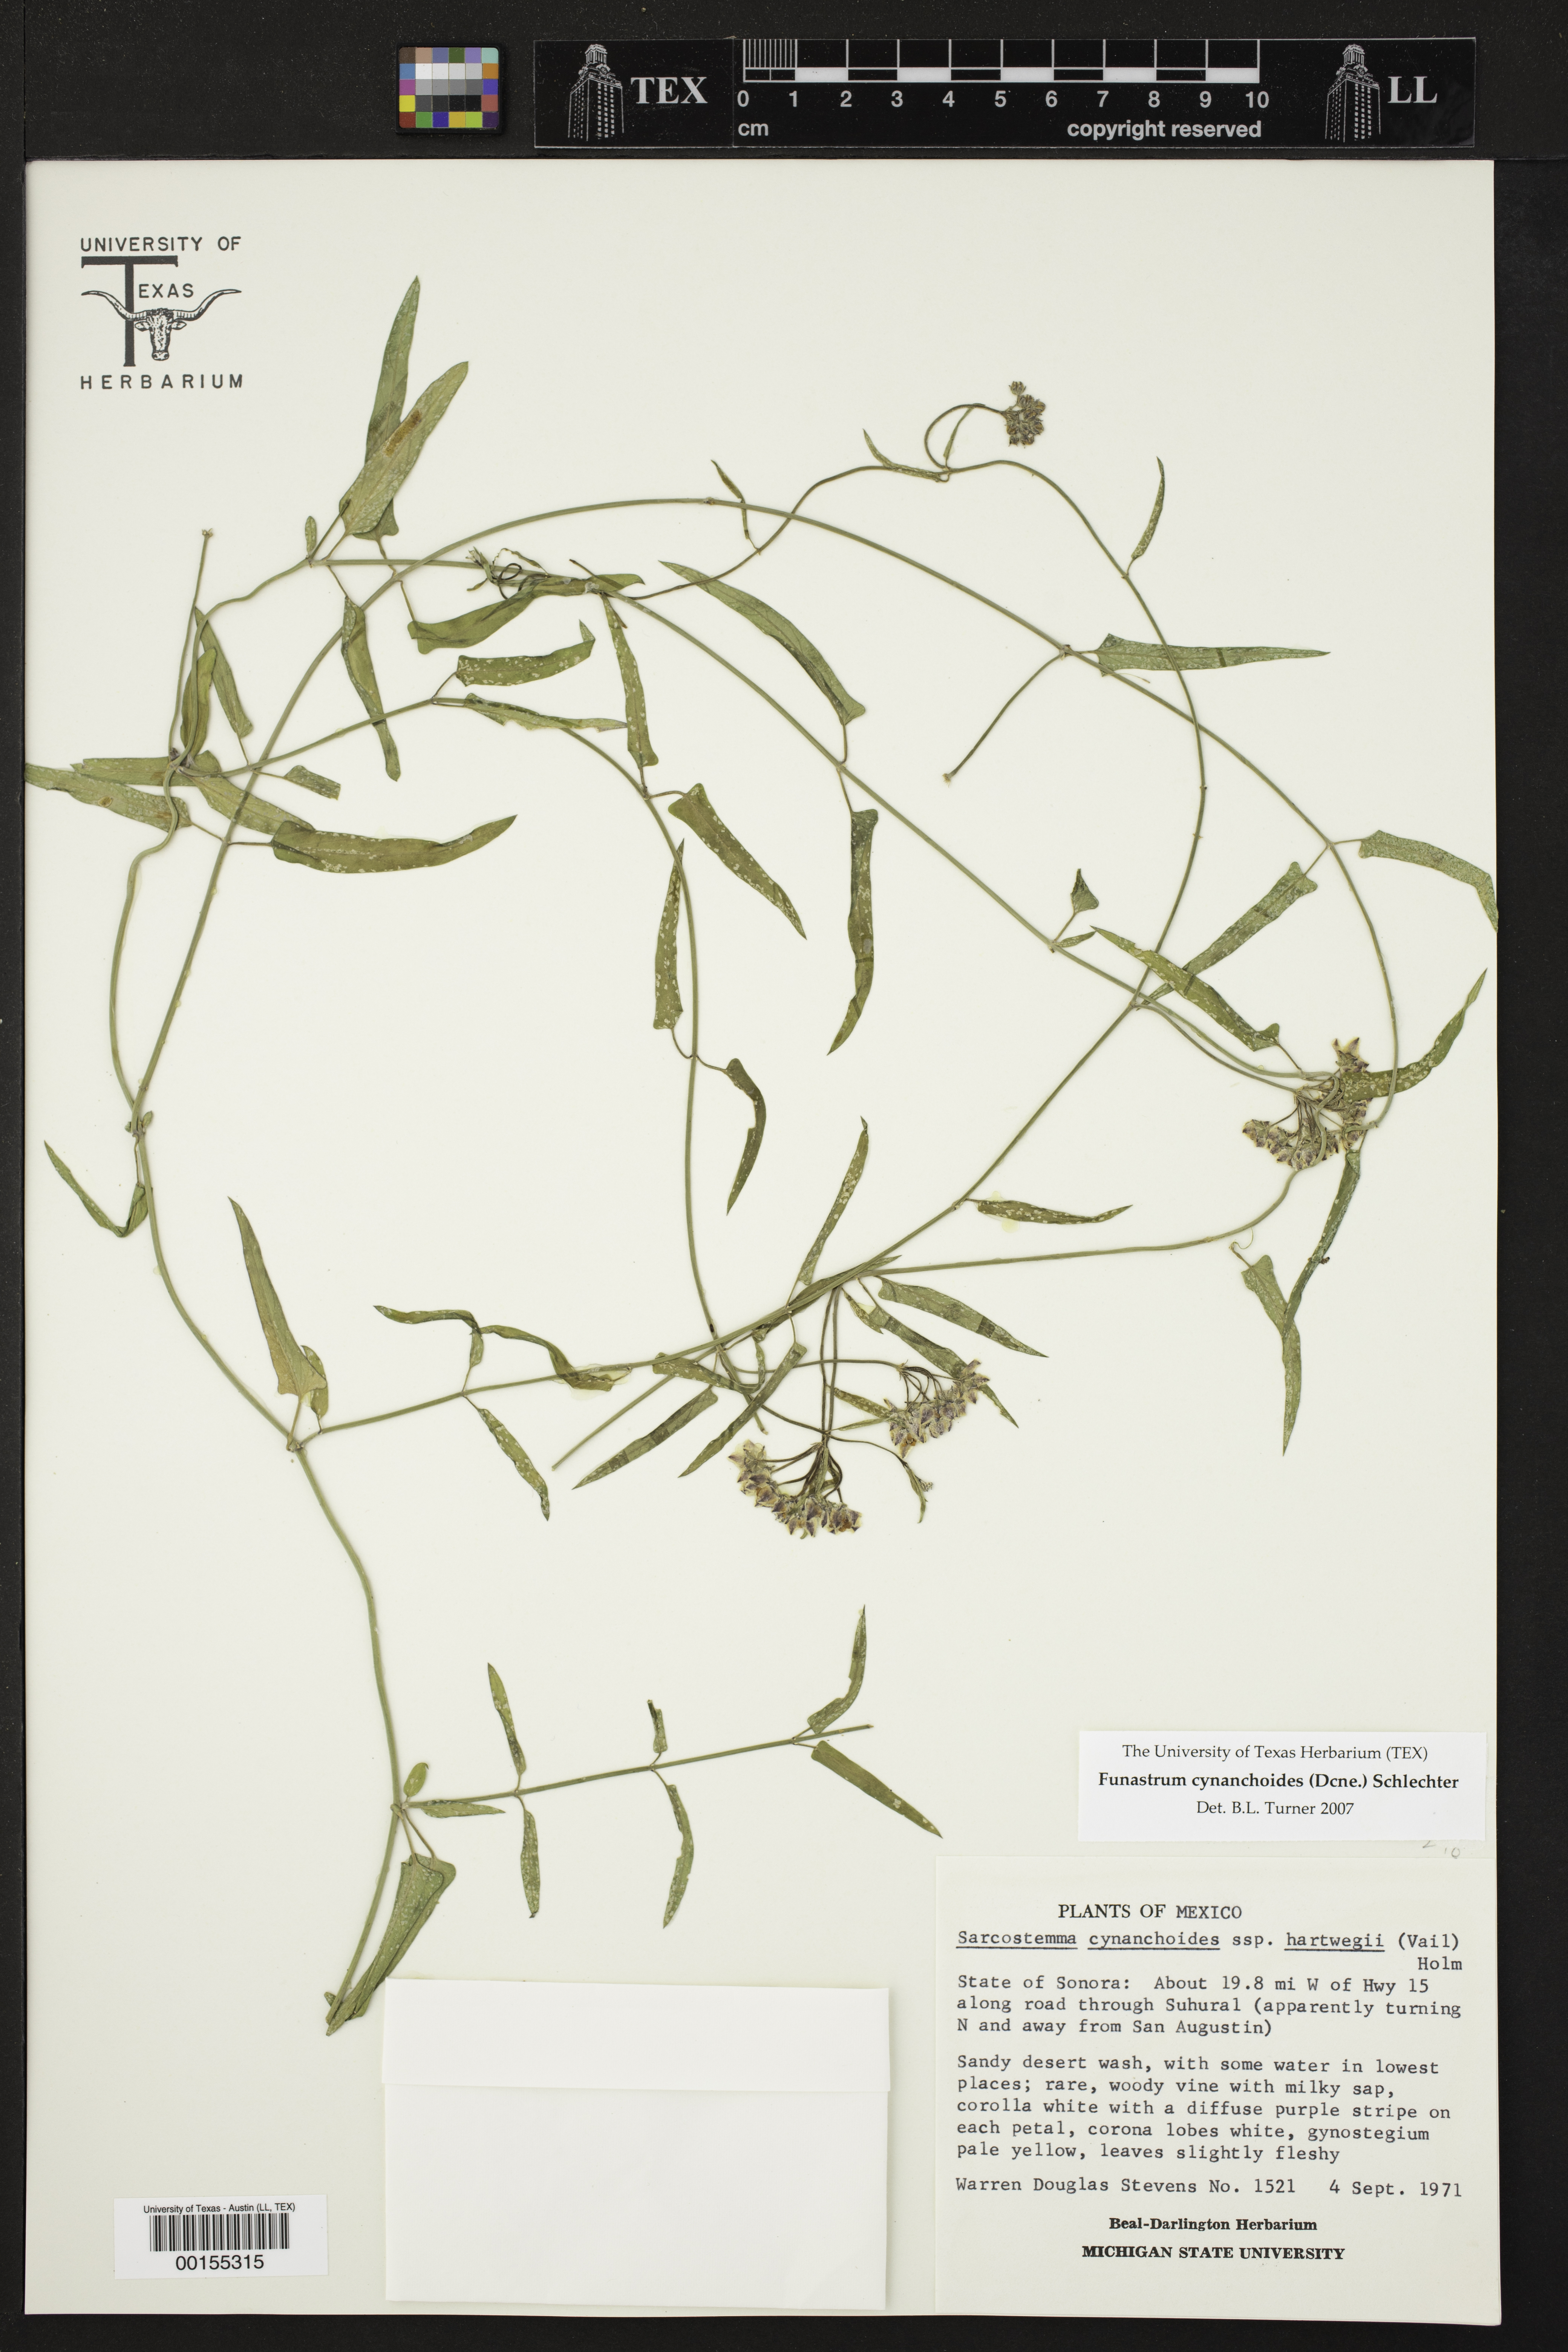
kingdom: Plantae
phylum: Tracheophyta
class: Magnoliopsida
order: Gentianales
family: Apocynaceae
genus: Funastrum
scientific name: Funastrum heterophyllum
